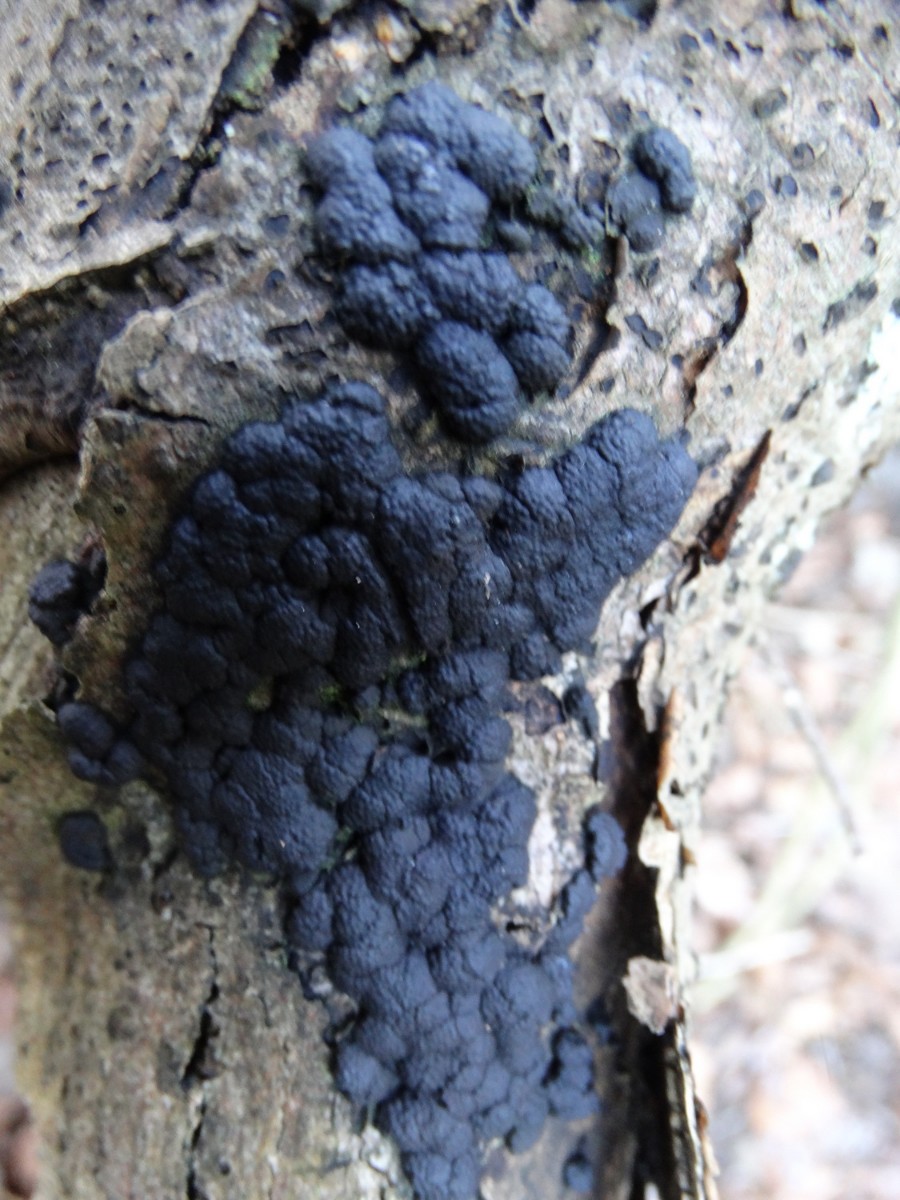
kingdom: Fungi
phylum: Ascomycota
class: Sordariomycetes
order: Xylariales
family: Hypoxylaceae
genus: Jackrogersella
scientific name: Jackrogersella cohaerens
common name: sammenflydende kulbær
